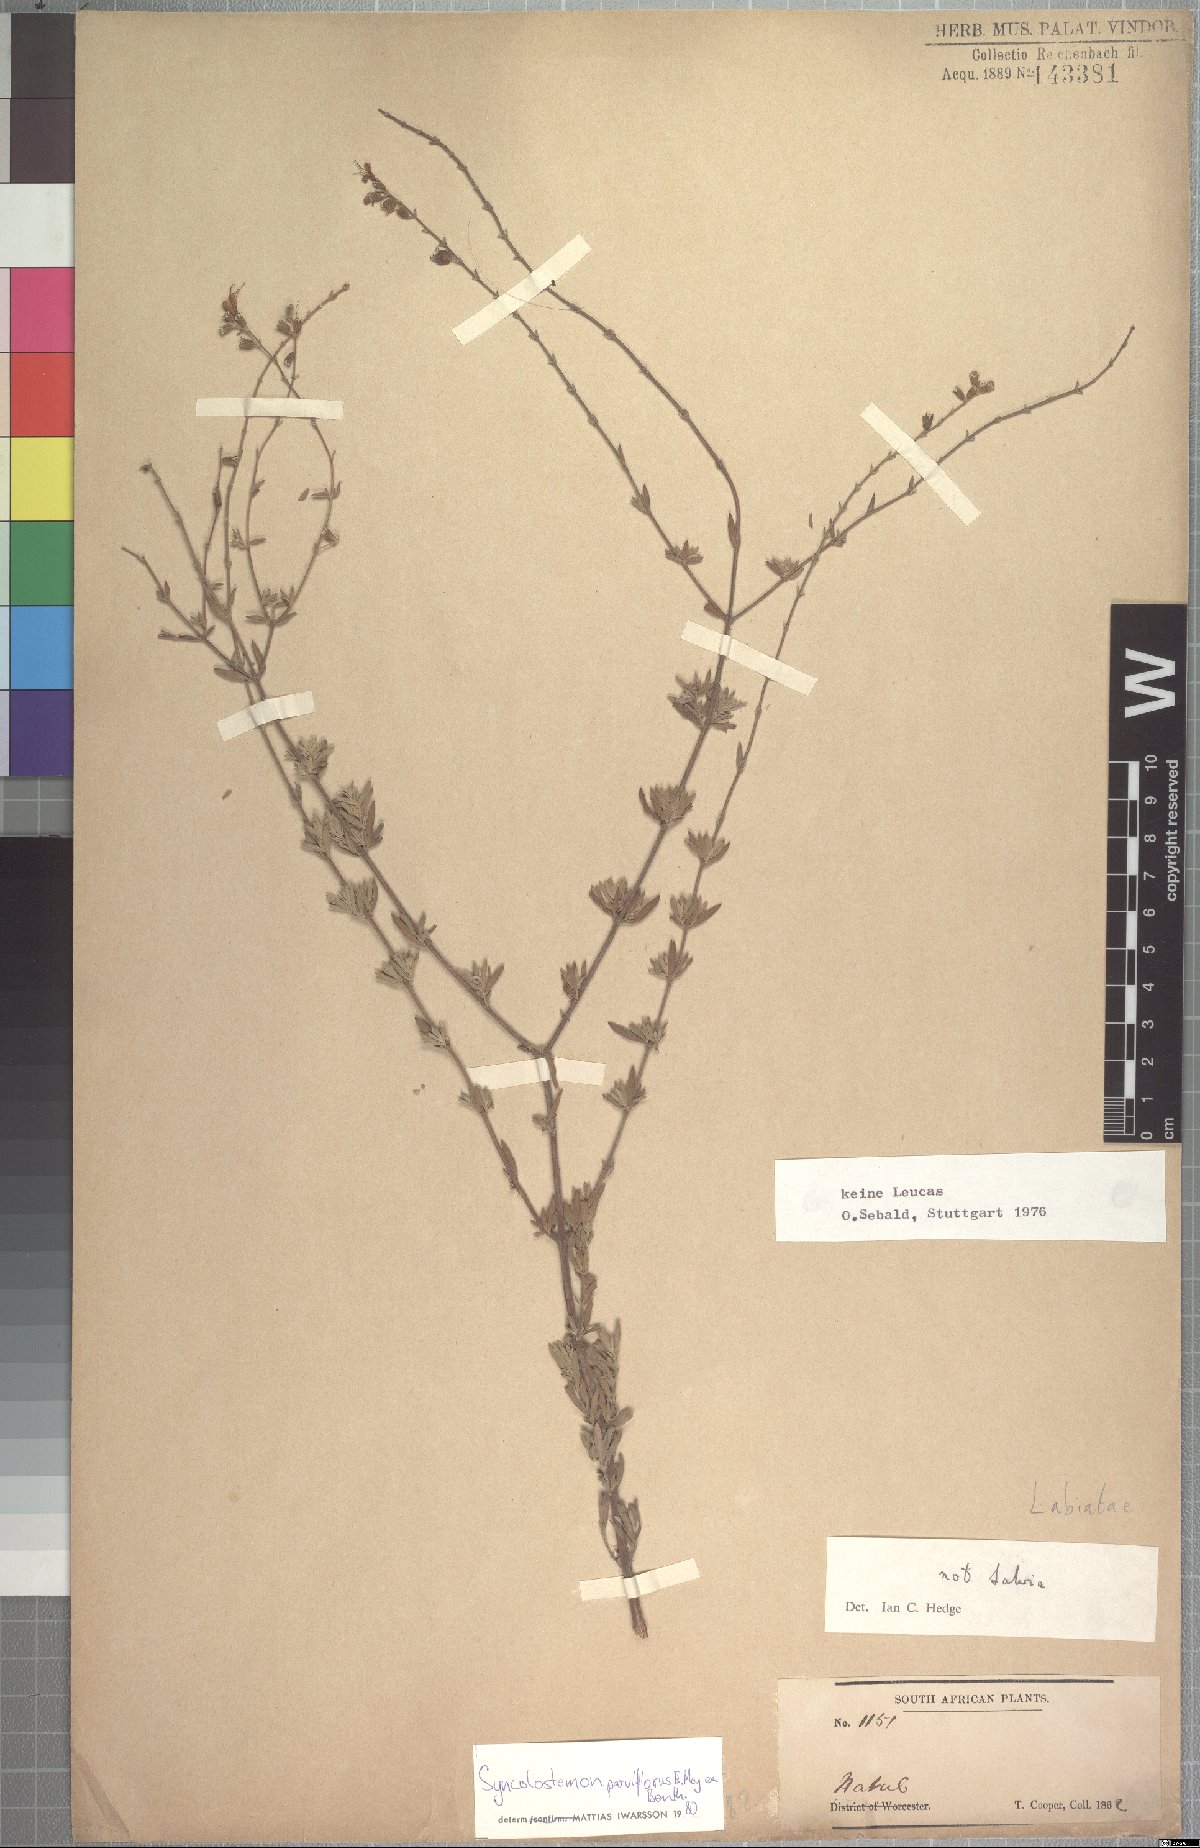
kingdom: Plantae
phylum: Tracheophyta
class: Magnoliopsida
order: Lamiales
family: Lamiaceae
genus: Syncolostemon
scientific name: Syncolostemon parviflorus
